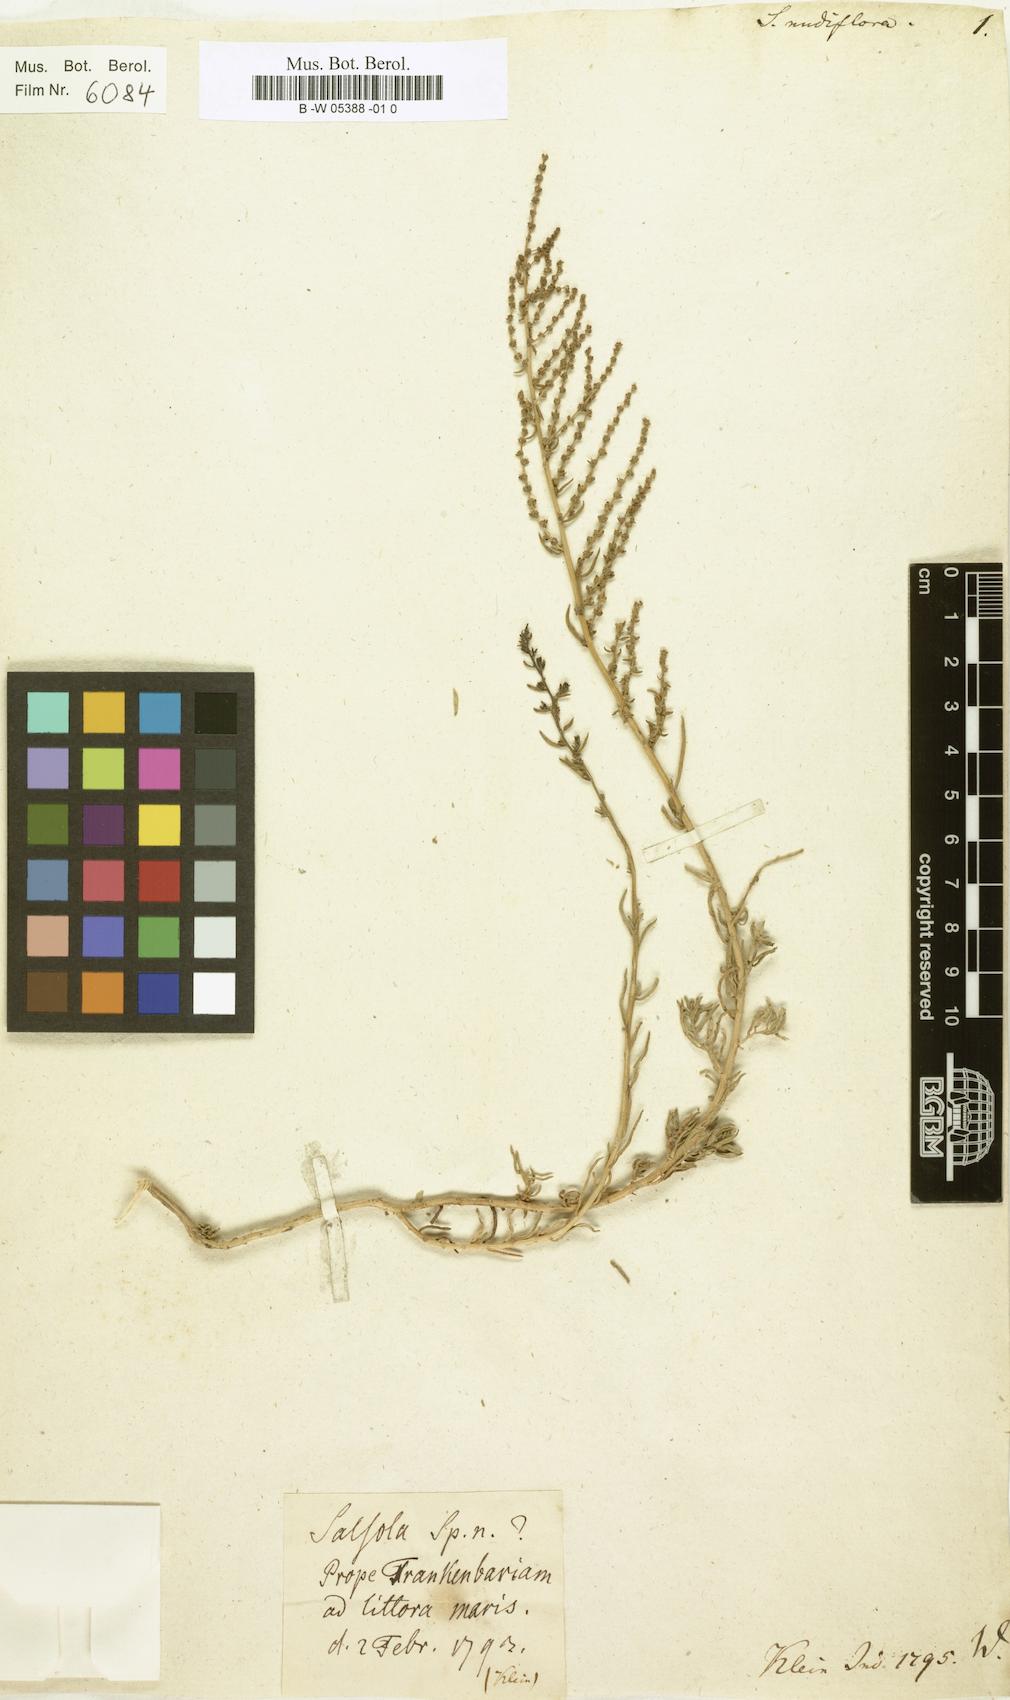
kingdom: Plantae
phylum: Tracheophyta
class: Magnoliopsida
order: Caryophyllales
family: Amaranthaceae
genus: Suaeda
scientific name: Suaeda
